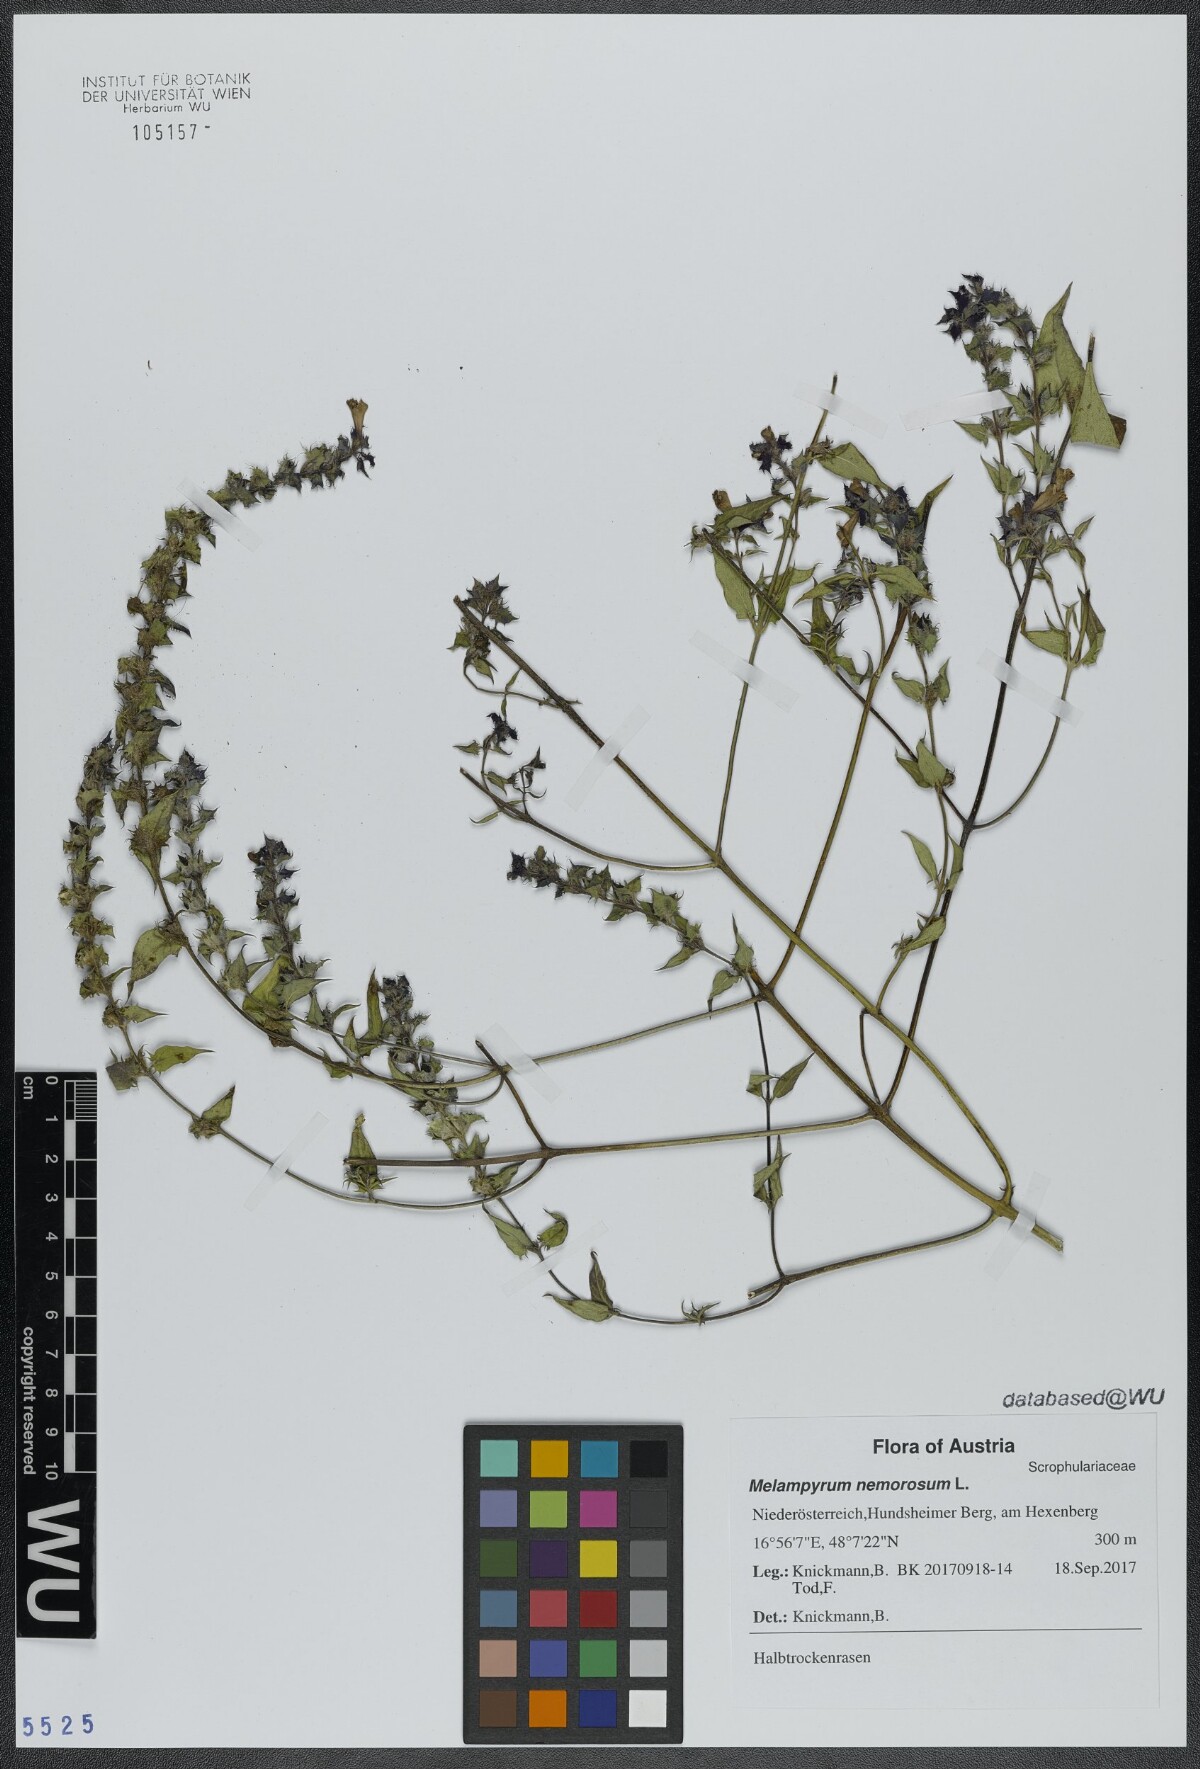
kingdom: Plantae
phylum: Tracheophyta
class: Magnoliopsida
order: Lamiales
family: Orobanchaceae
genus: Melampyrum
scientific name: Melampyrum nemorosum
